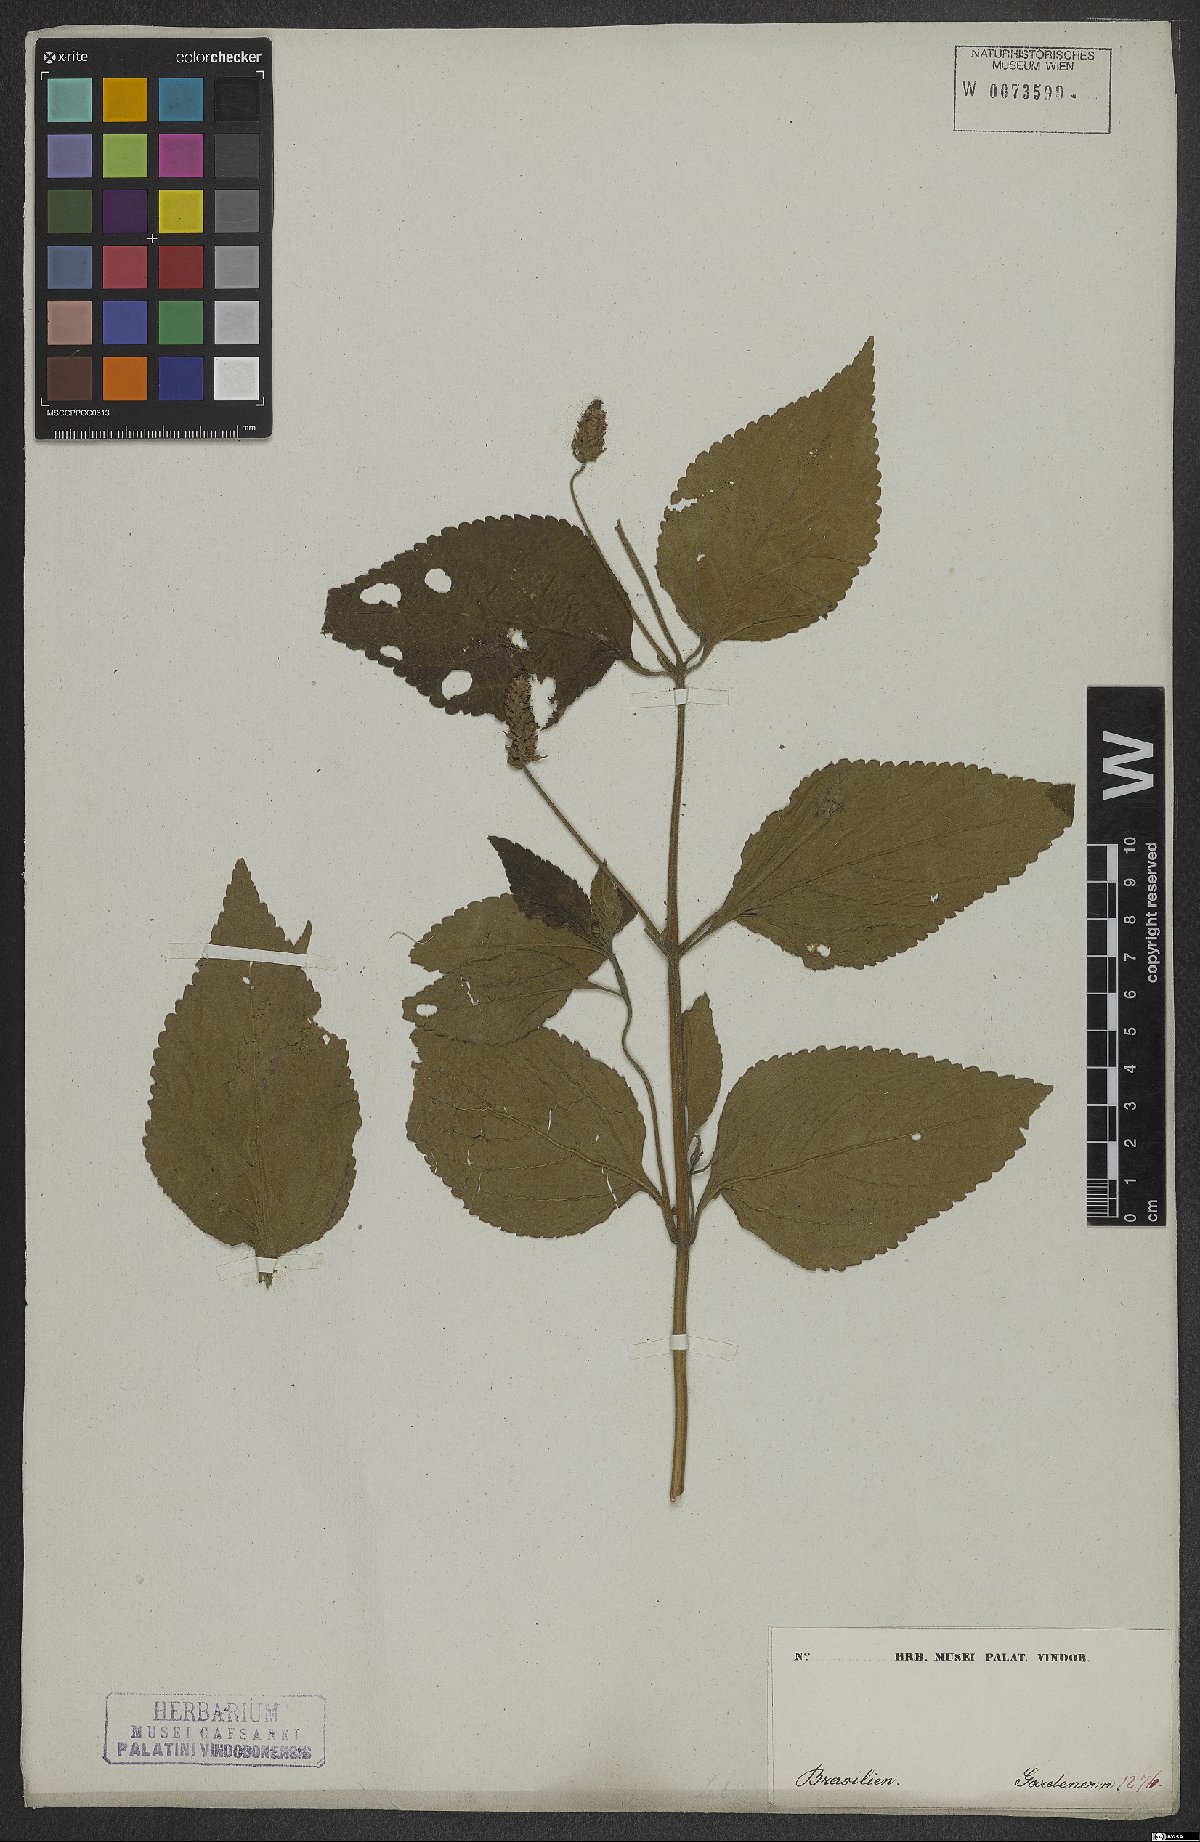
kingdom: Plantae
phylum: Tracheophyta
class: Magnoliopsida
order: Lamiales
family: Verbenaceae
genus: Lantana
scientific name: Lantana trifolia
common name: Sweet-sage
